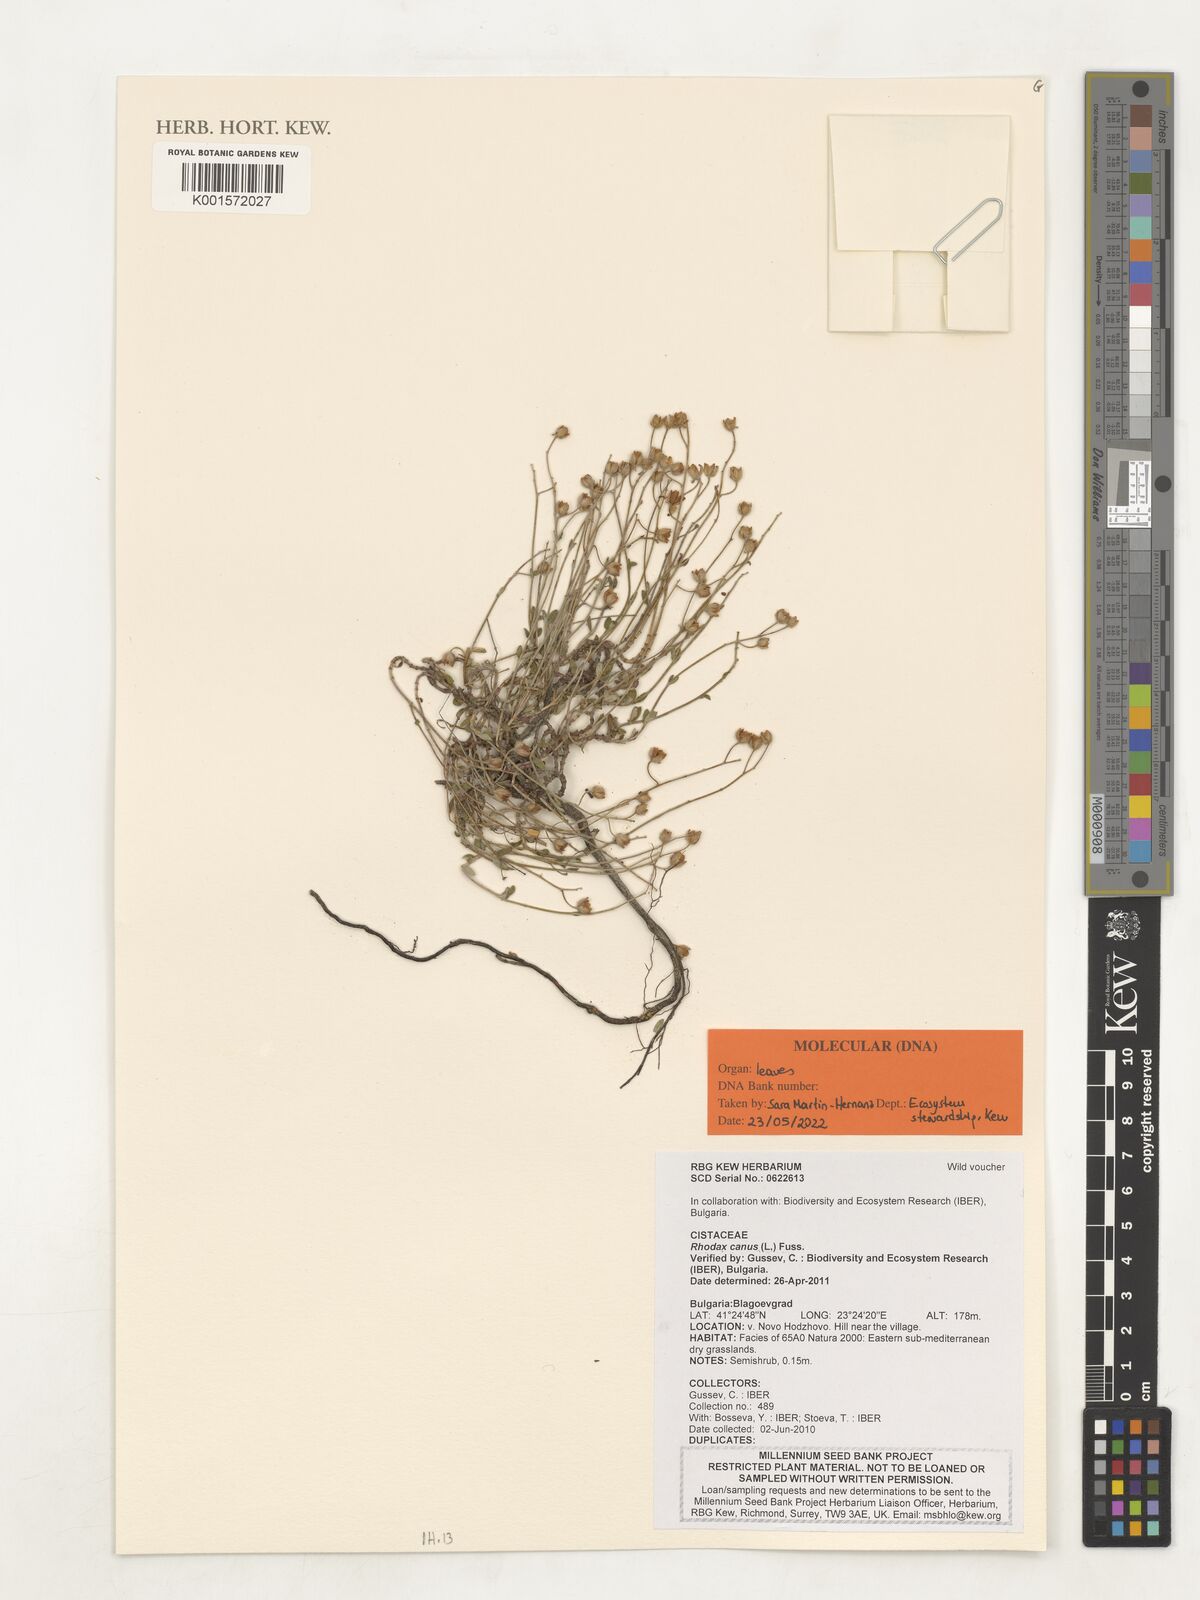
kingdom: Plantae
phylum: Tracheophyta
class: Magnoliopsida
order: Malvales
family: Cistaceae
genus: Helianthemum
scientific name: Helianthemum canum
